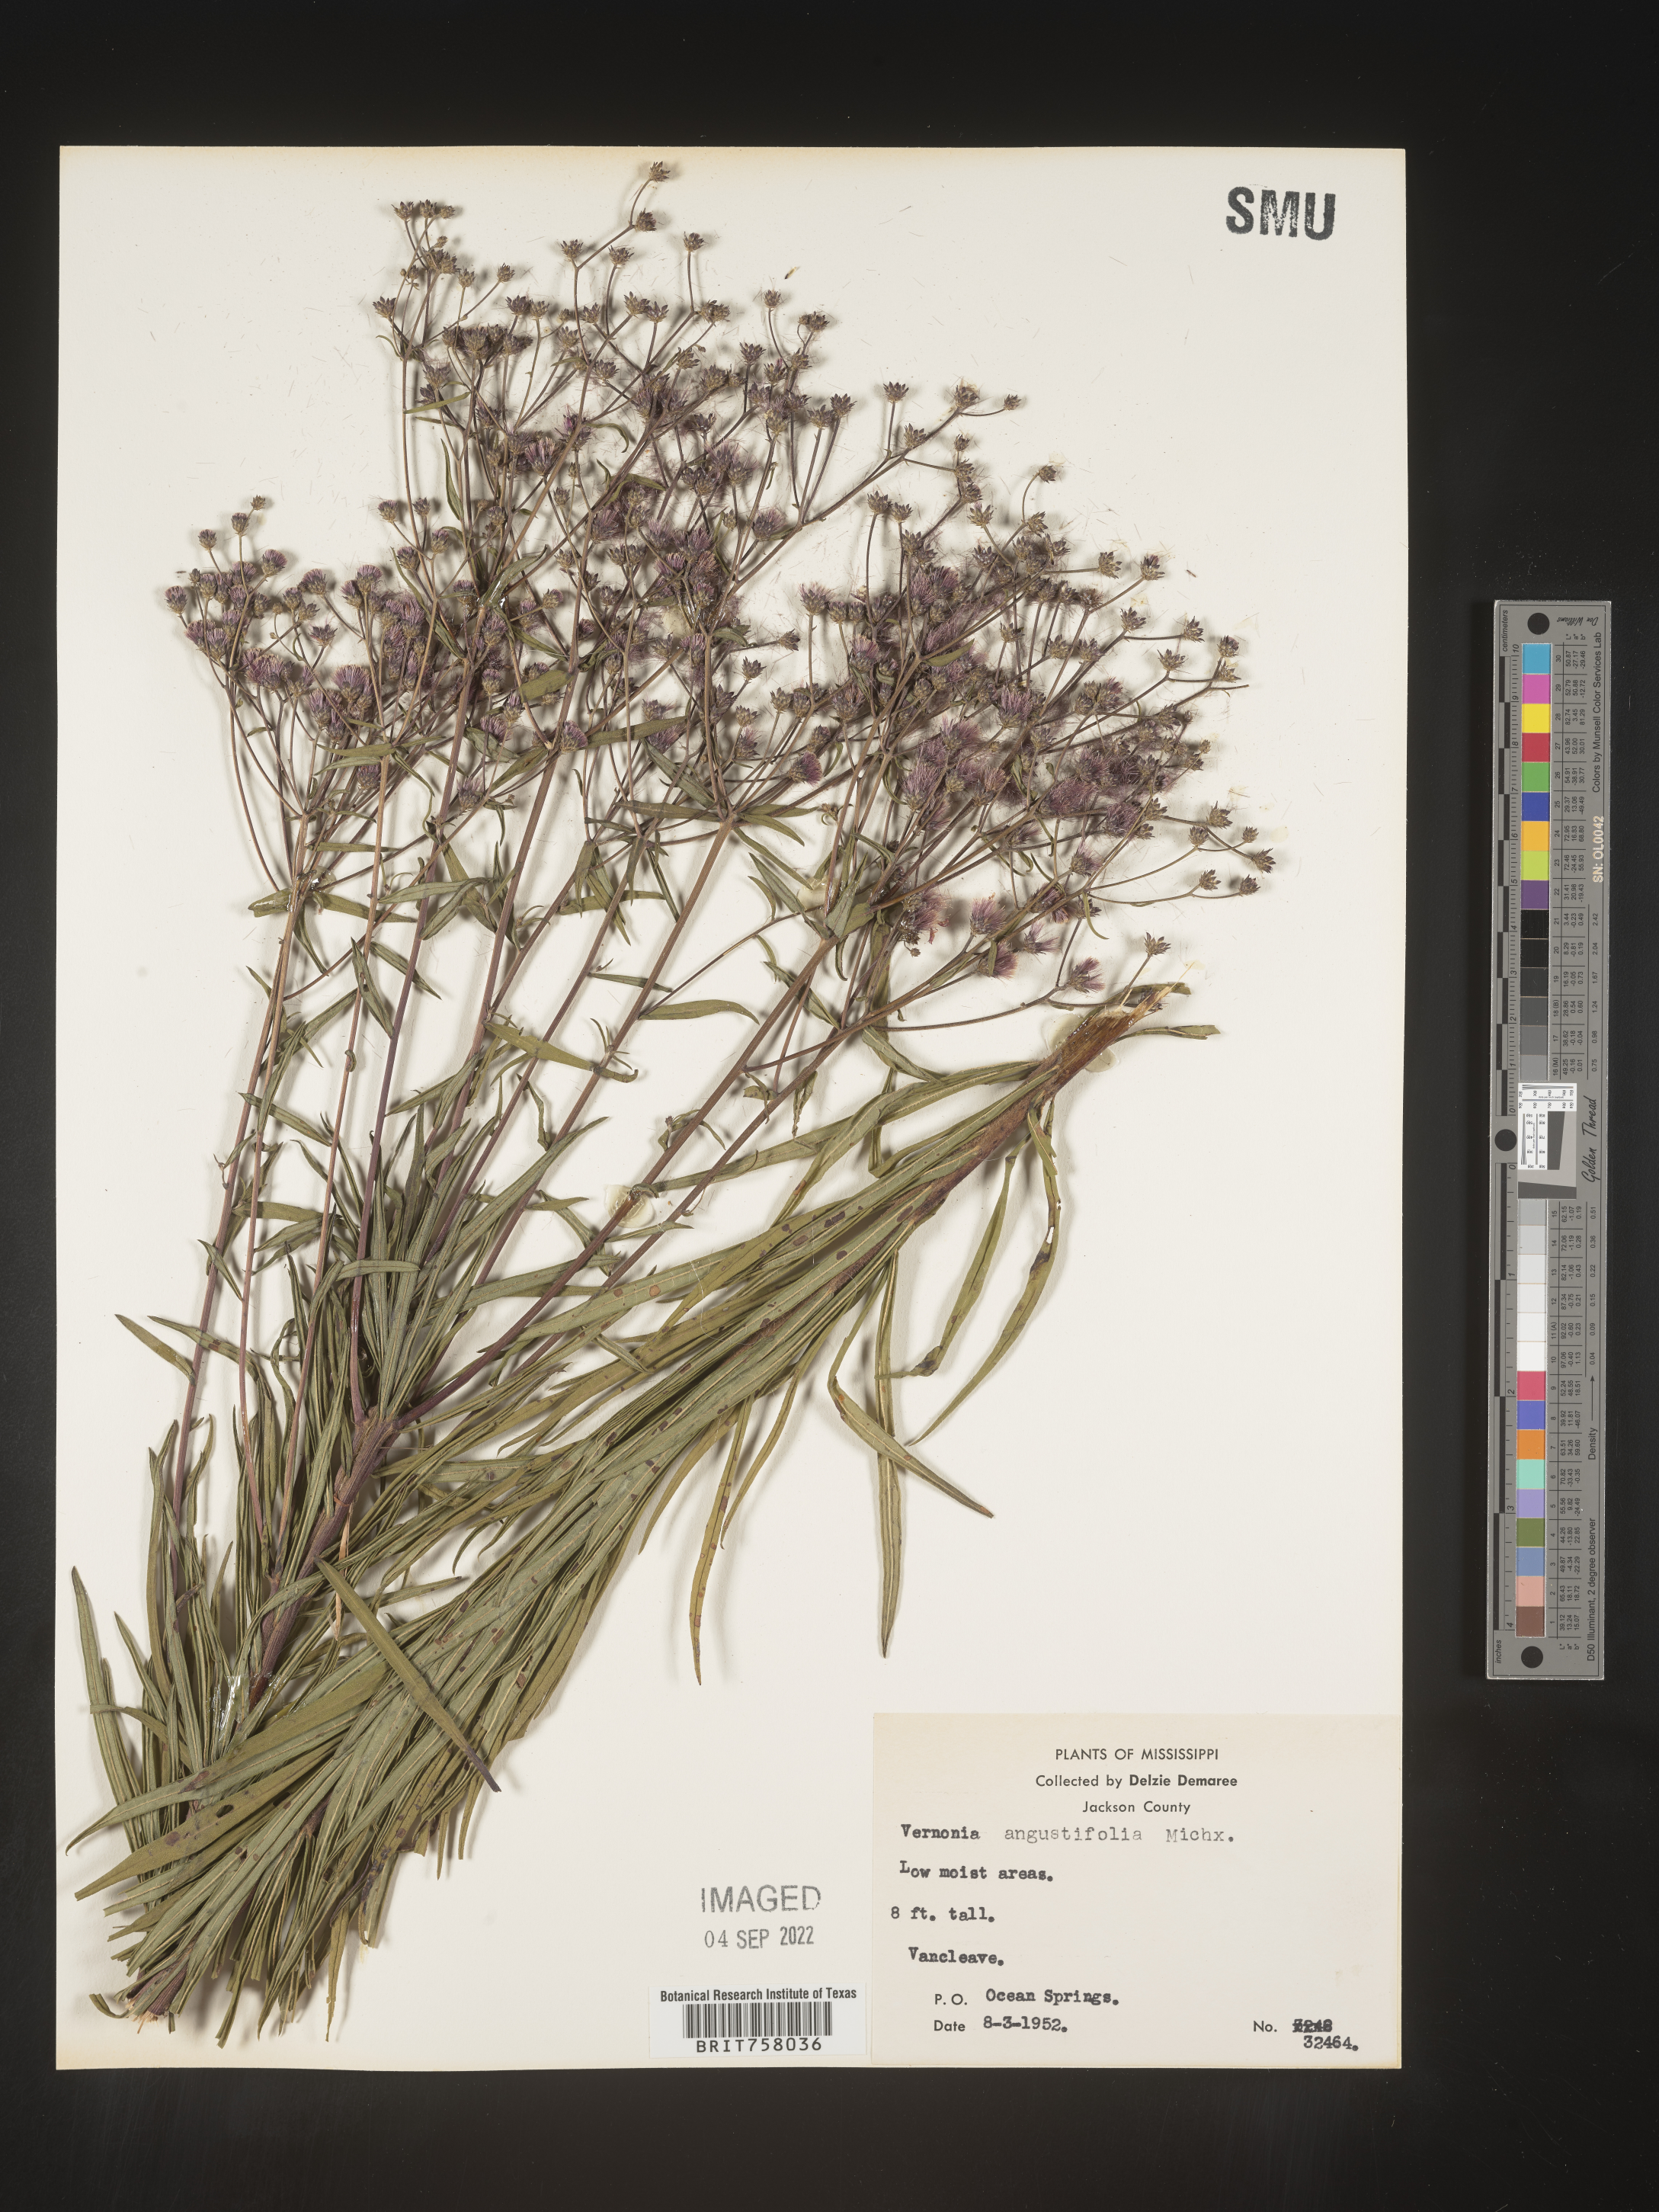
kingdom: Plantae
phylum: Tracheophyta
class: Magnoliopsida
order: Asterales
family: Asteraceae
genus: Vernonia
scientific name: Vernonia angustifolia
